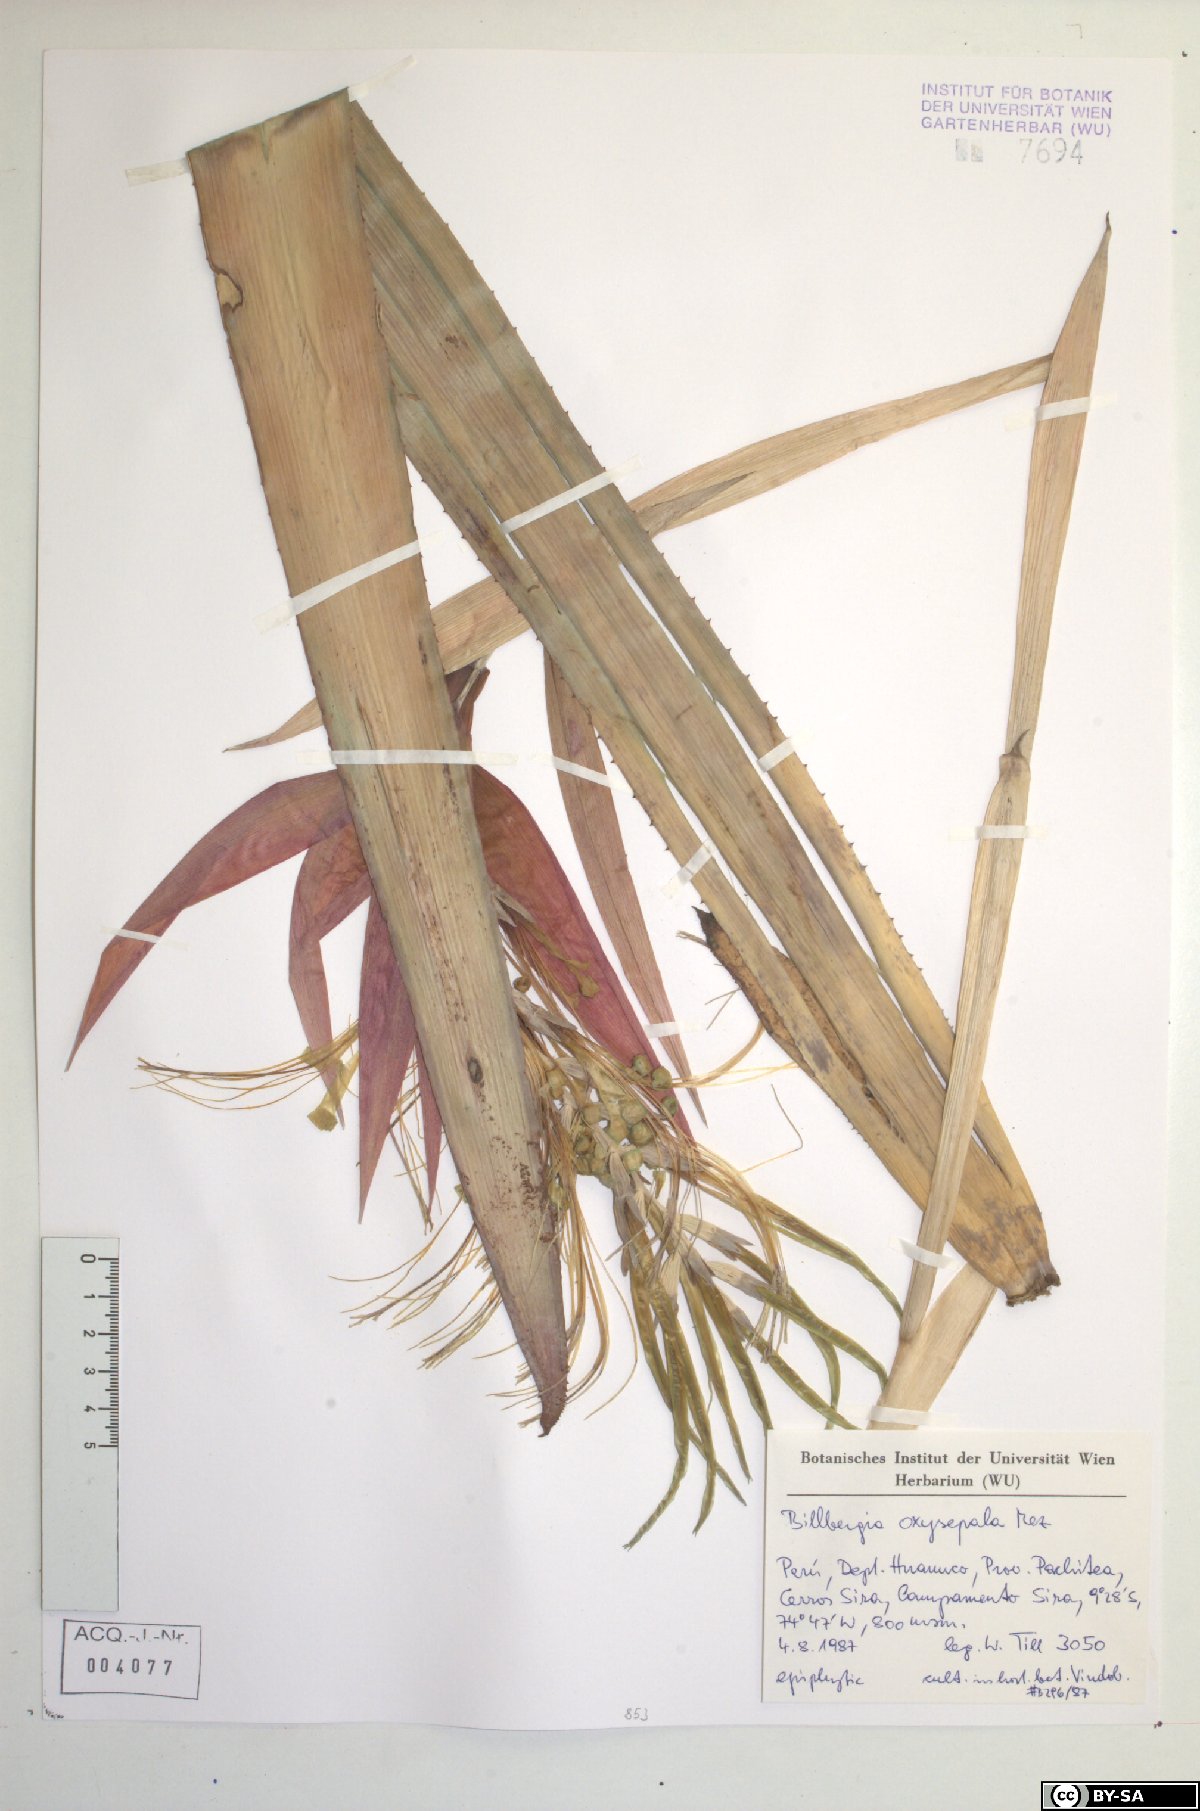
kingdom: Plantae
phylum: Tracheophyta
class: Liliopsida
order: Poales
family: Bromeliaceae
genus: Billbergia
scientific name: Billbergia oxysepala
